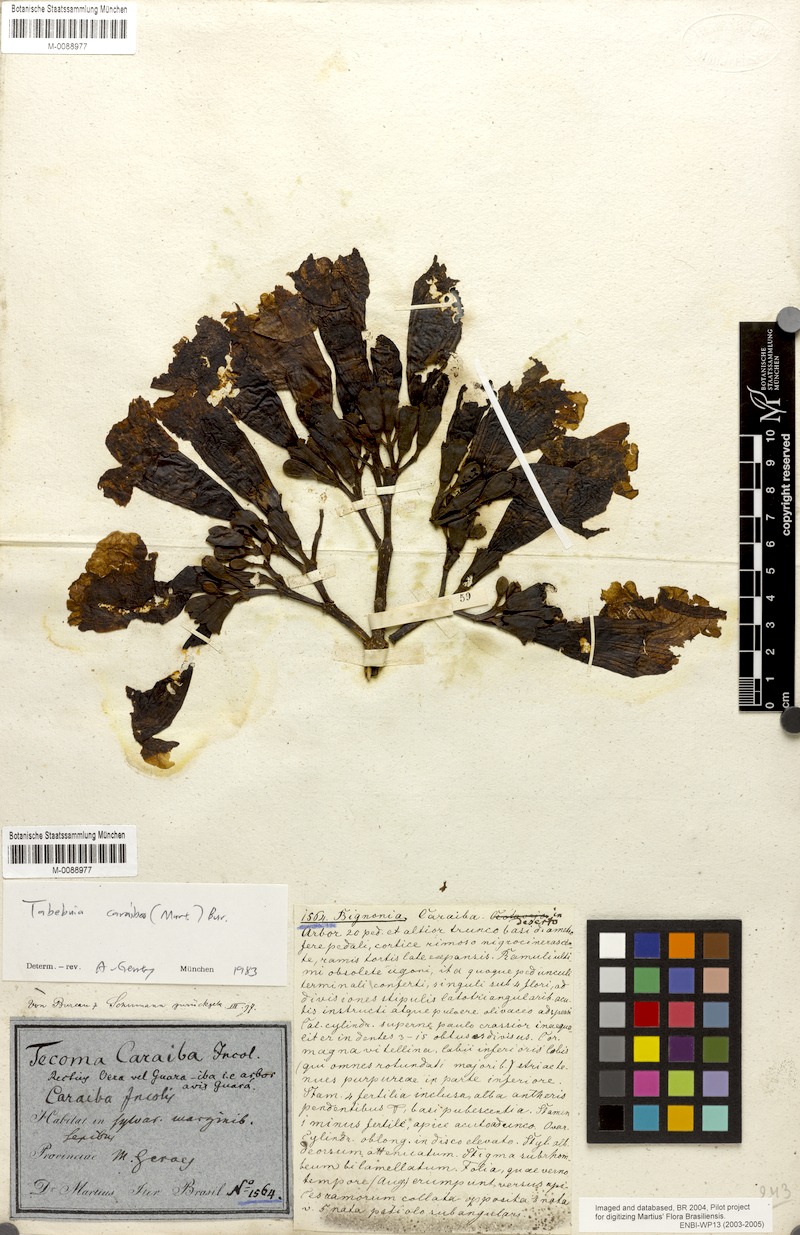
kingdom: Plantae
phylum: Tracheophyta
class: Magnoliopsida
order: Lamiales
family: Bignoniaceae
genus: Tabebuia
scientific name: Tabebuia aurea
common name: Caribbean trumpet-tree
